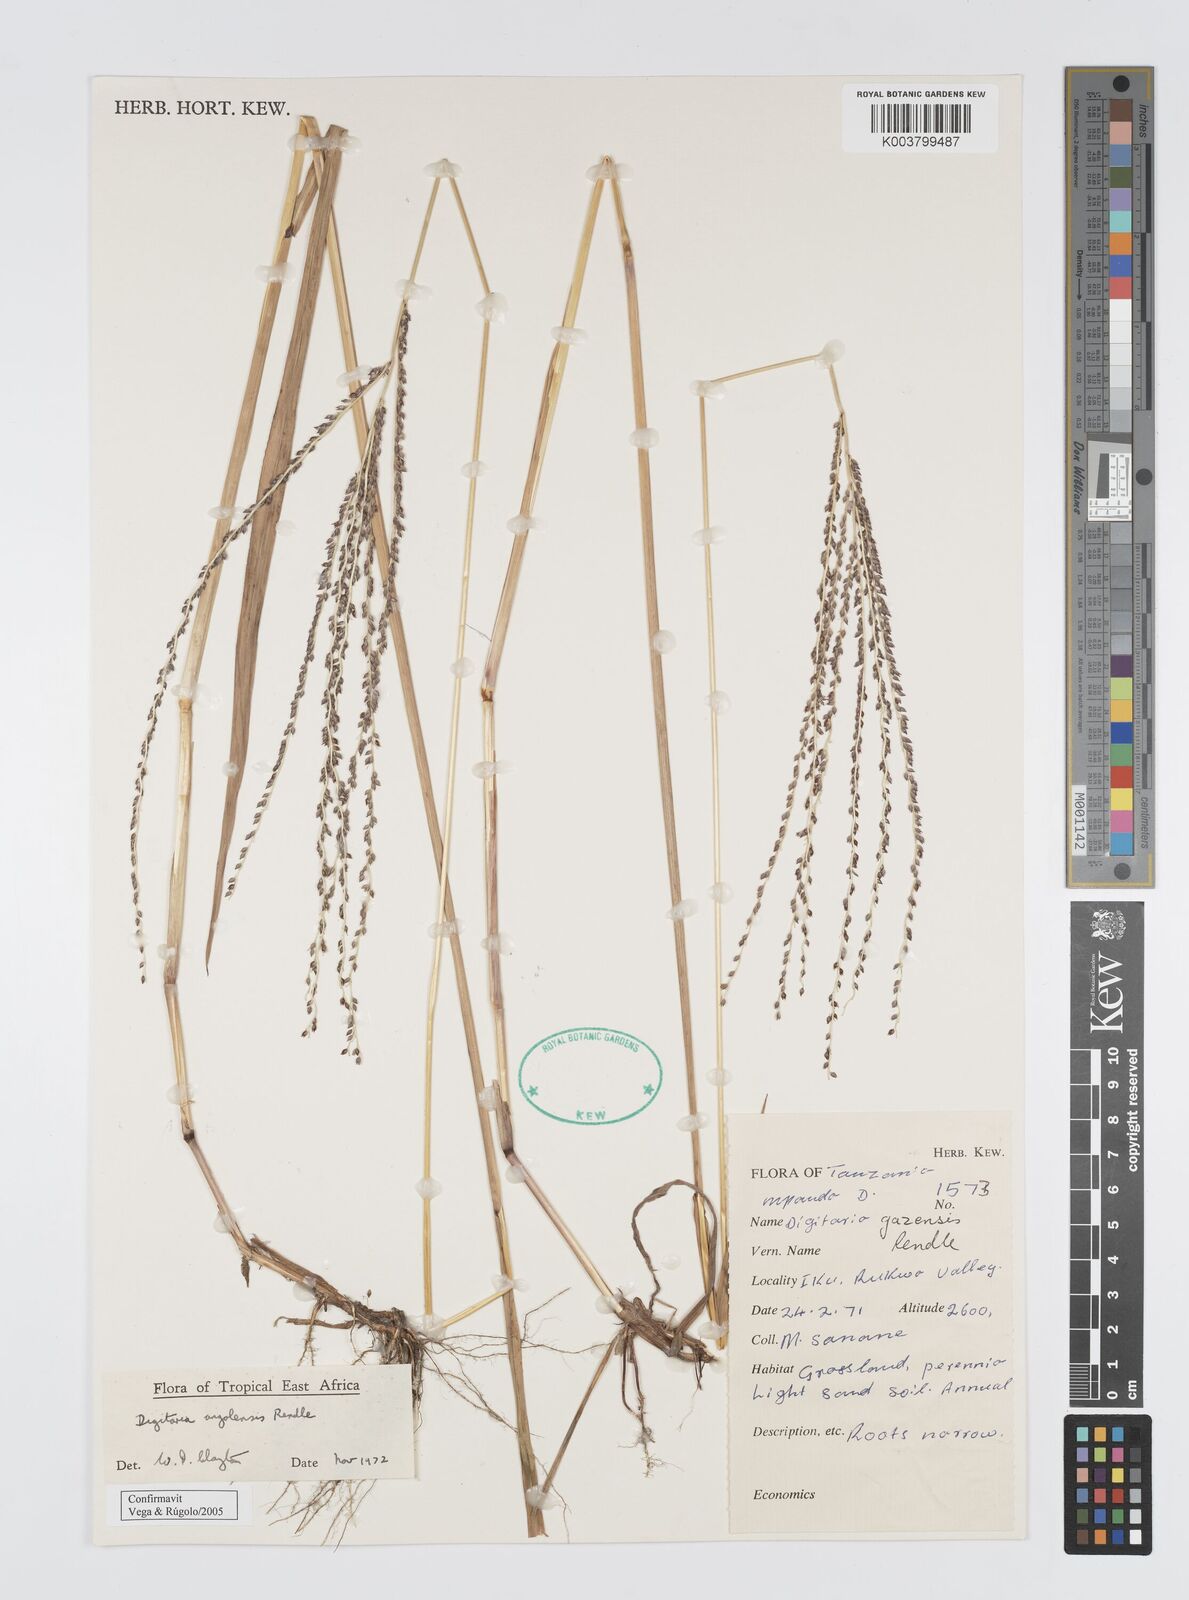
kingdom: Plantae
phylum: Tracheophyta
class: Liliopsida
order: Poales
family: Poaceae
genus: Digitaria
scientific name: Digitaria angolensis
